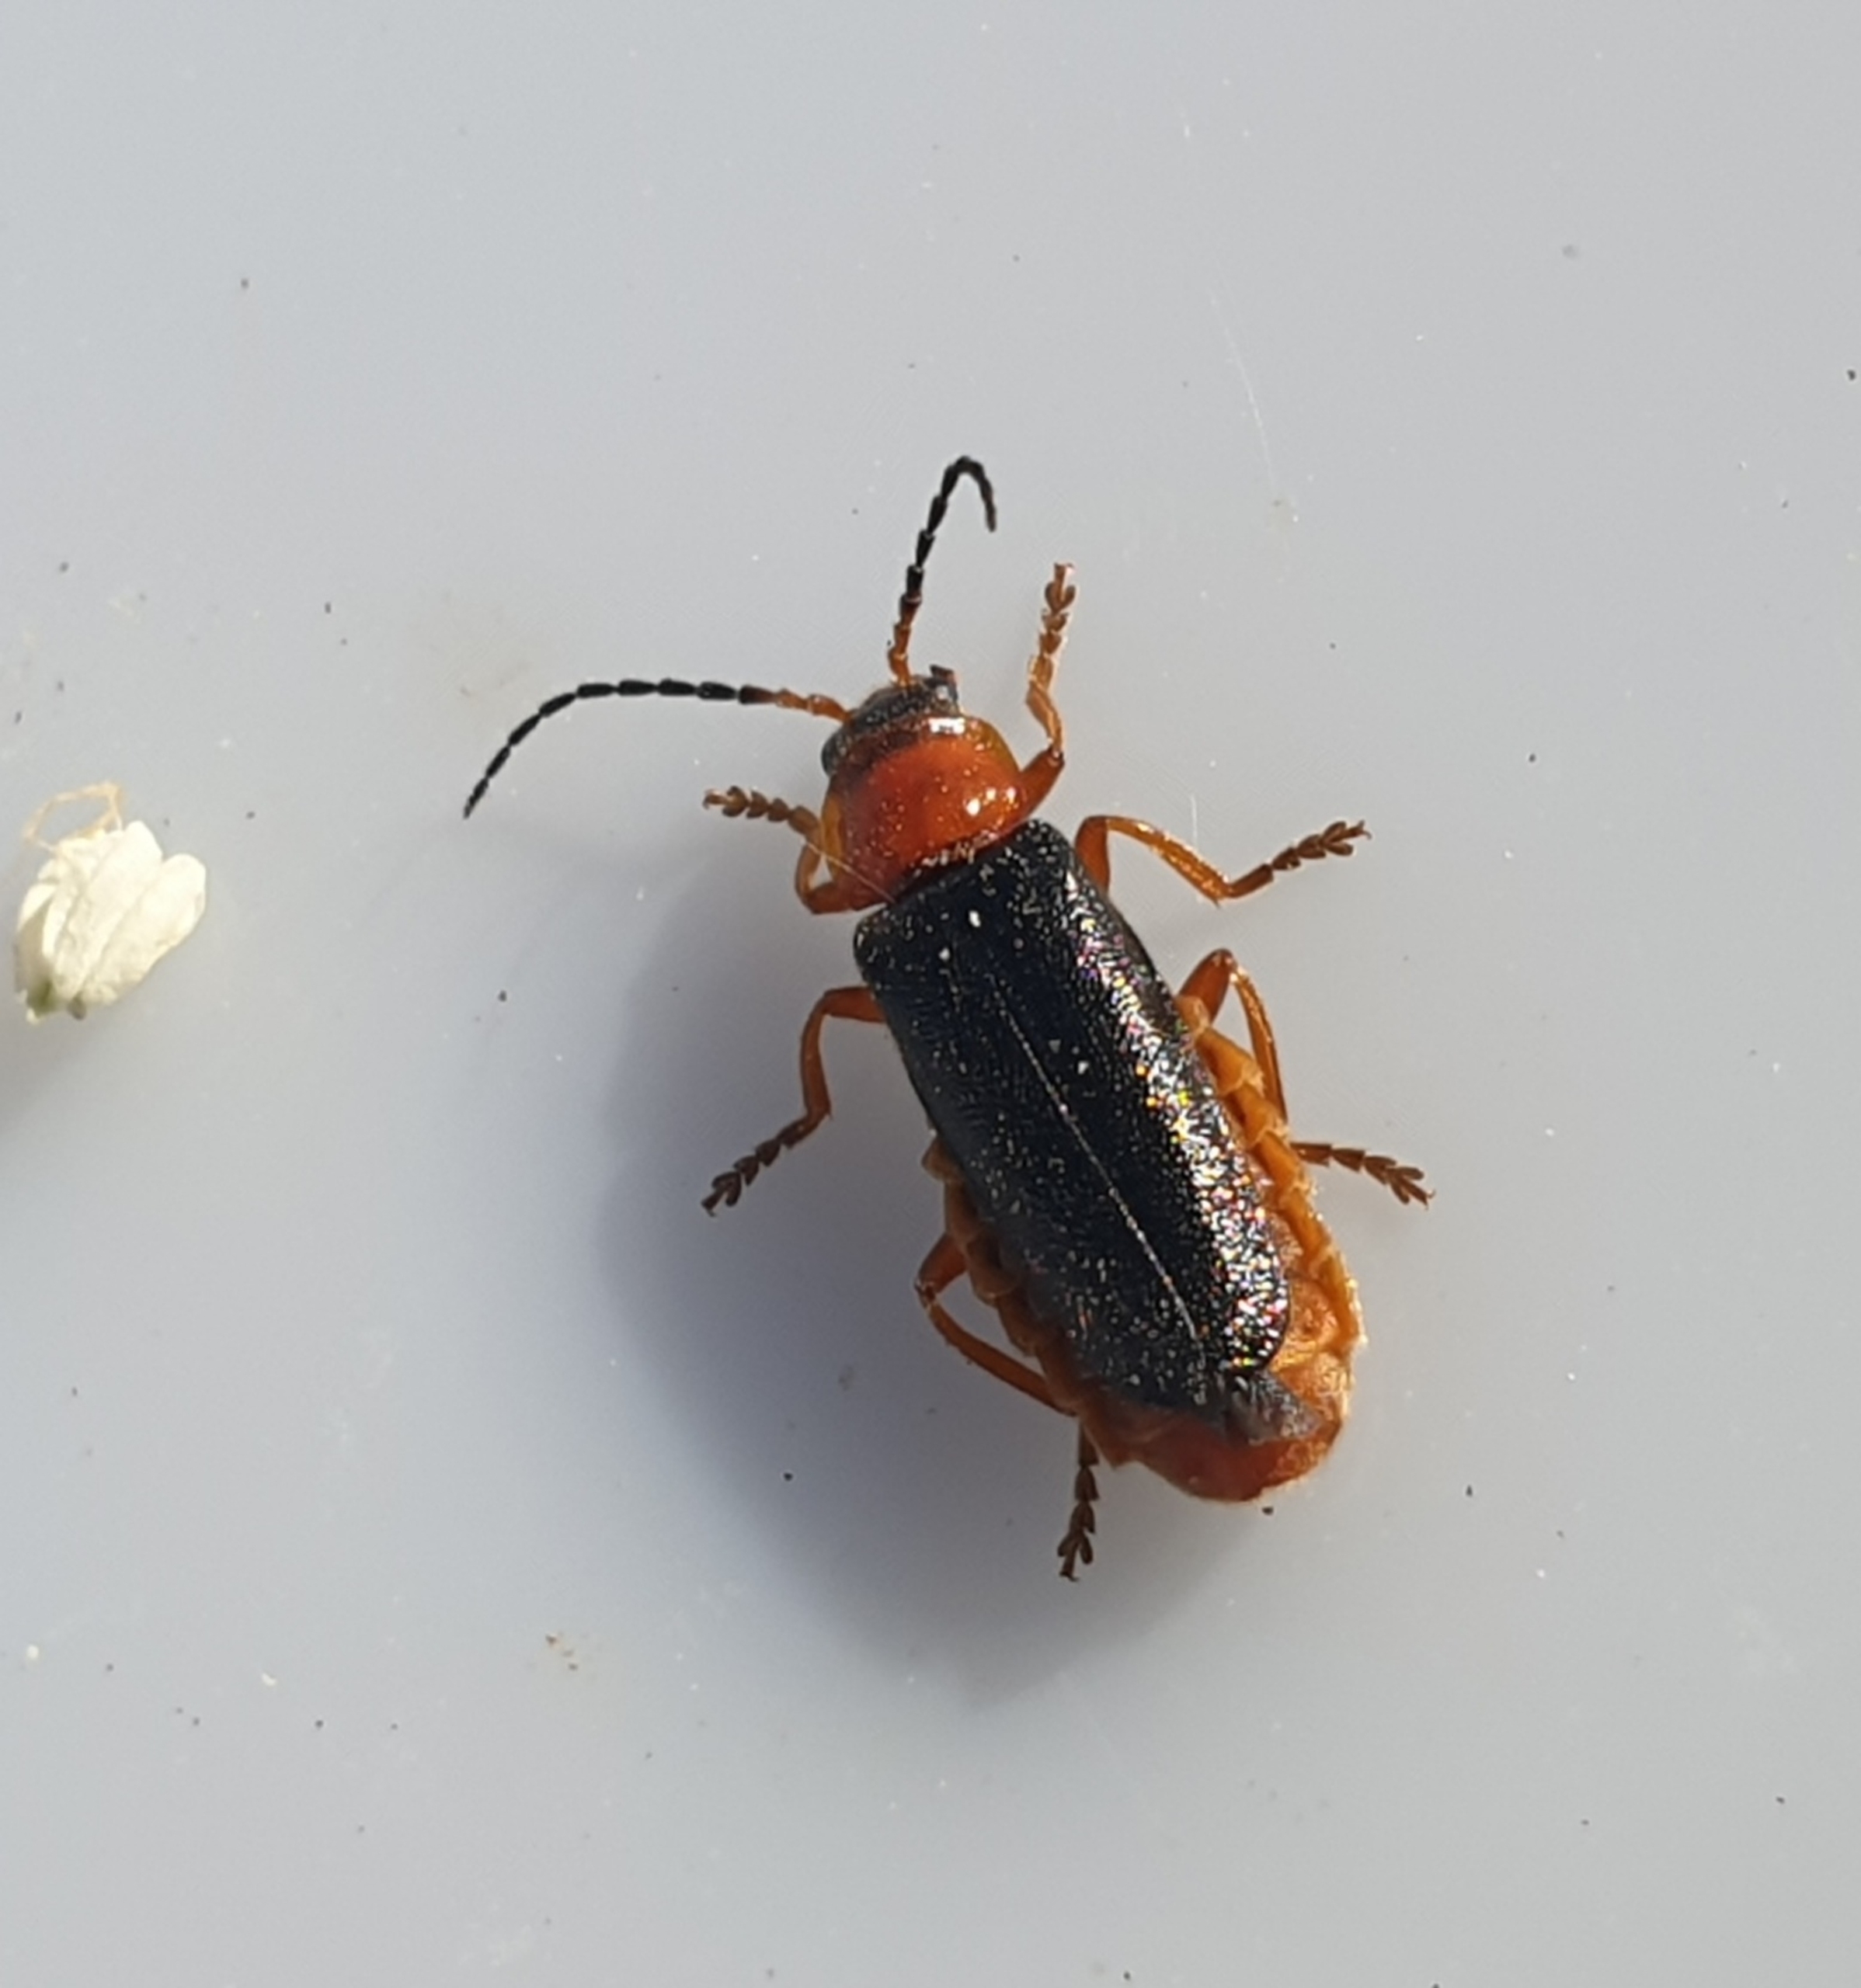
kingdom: Animalia
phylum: Arthropoda
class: Insecta
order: Coleoptera
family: Cantharidae
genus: Cantharis
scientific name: Cantharis flavilabris
